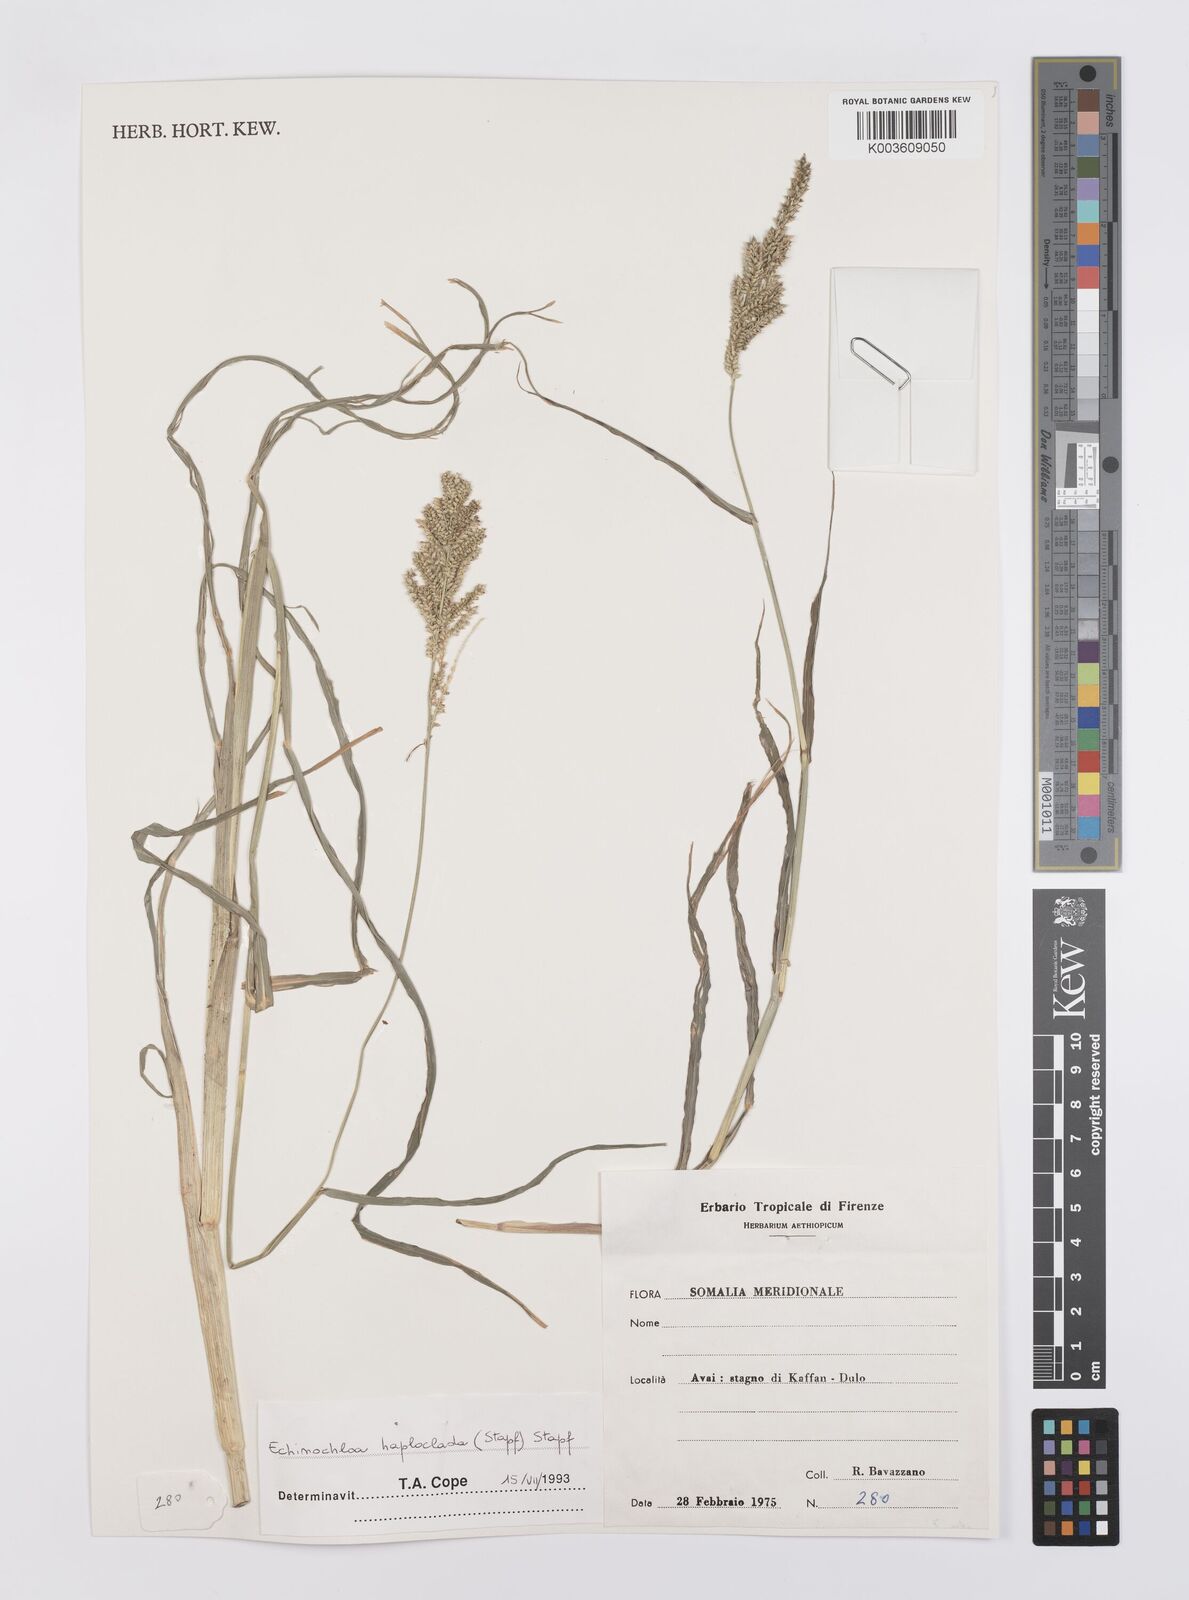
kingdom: Plantae
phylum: Tracheophyta
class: Liliopsida
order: Poales
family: Poaceae
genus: Echinochloa
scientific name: Echinochloa haploclada
